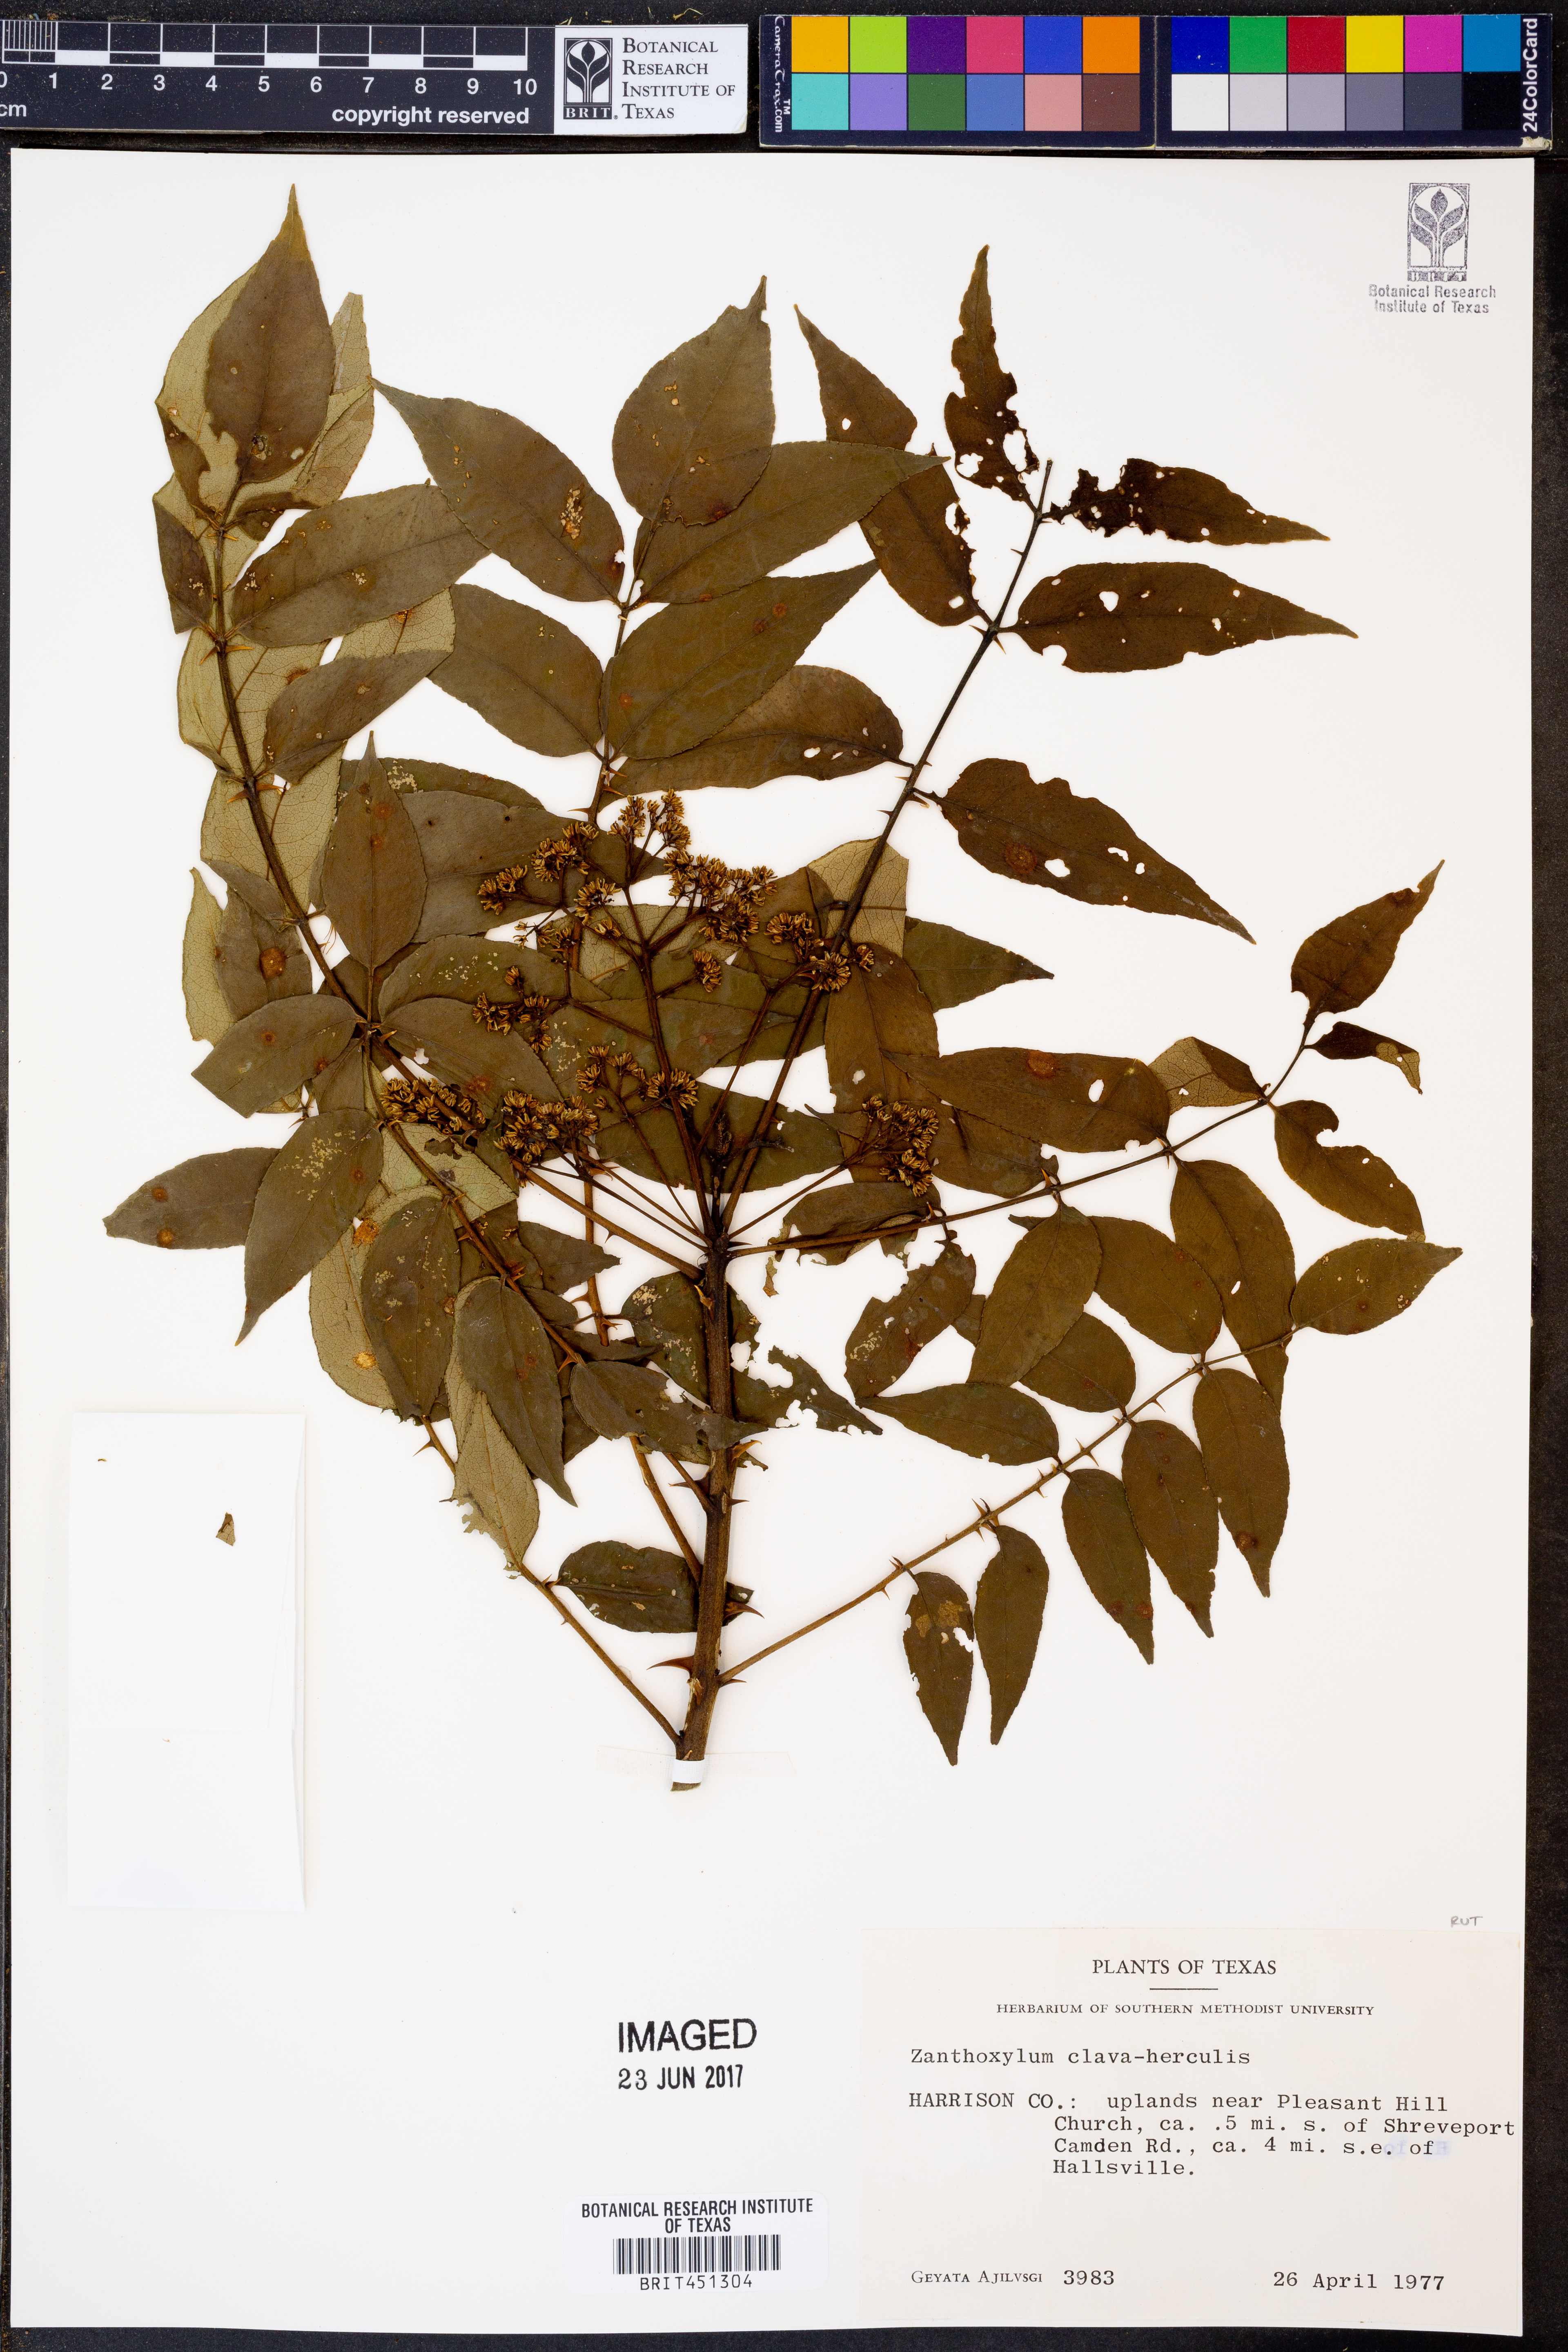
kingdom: Plantae
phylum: Tracheophyta
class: Magnoliopsida
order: Sapindales
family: Rutaceae
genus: Zanthoxylum
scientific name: Zanthoxylum avicennae
